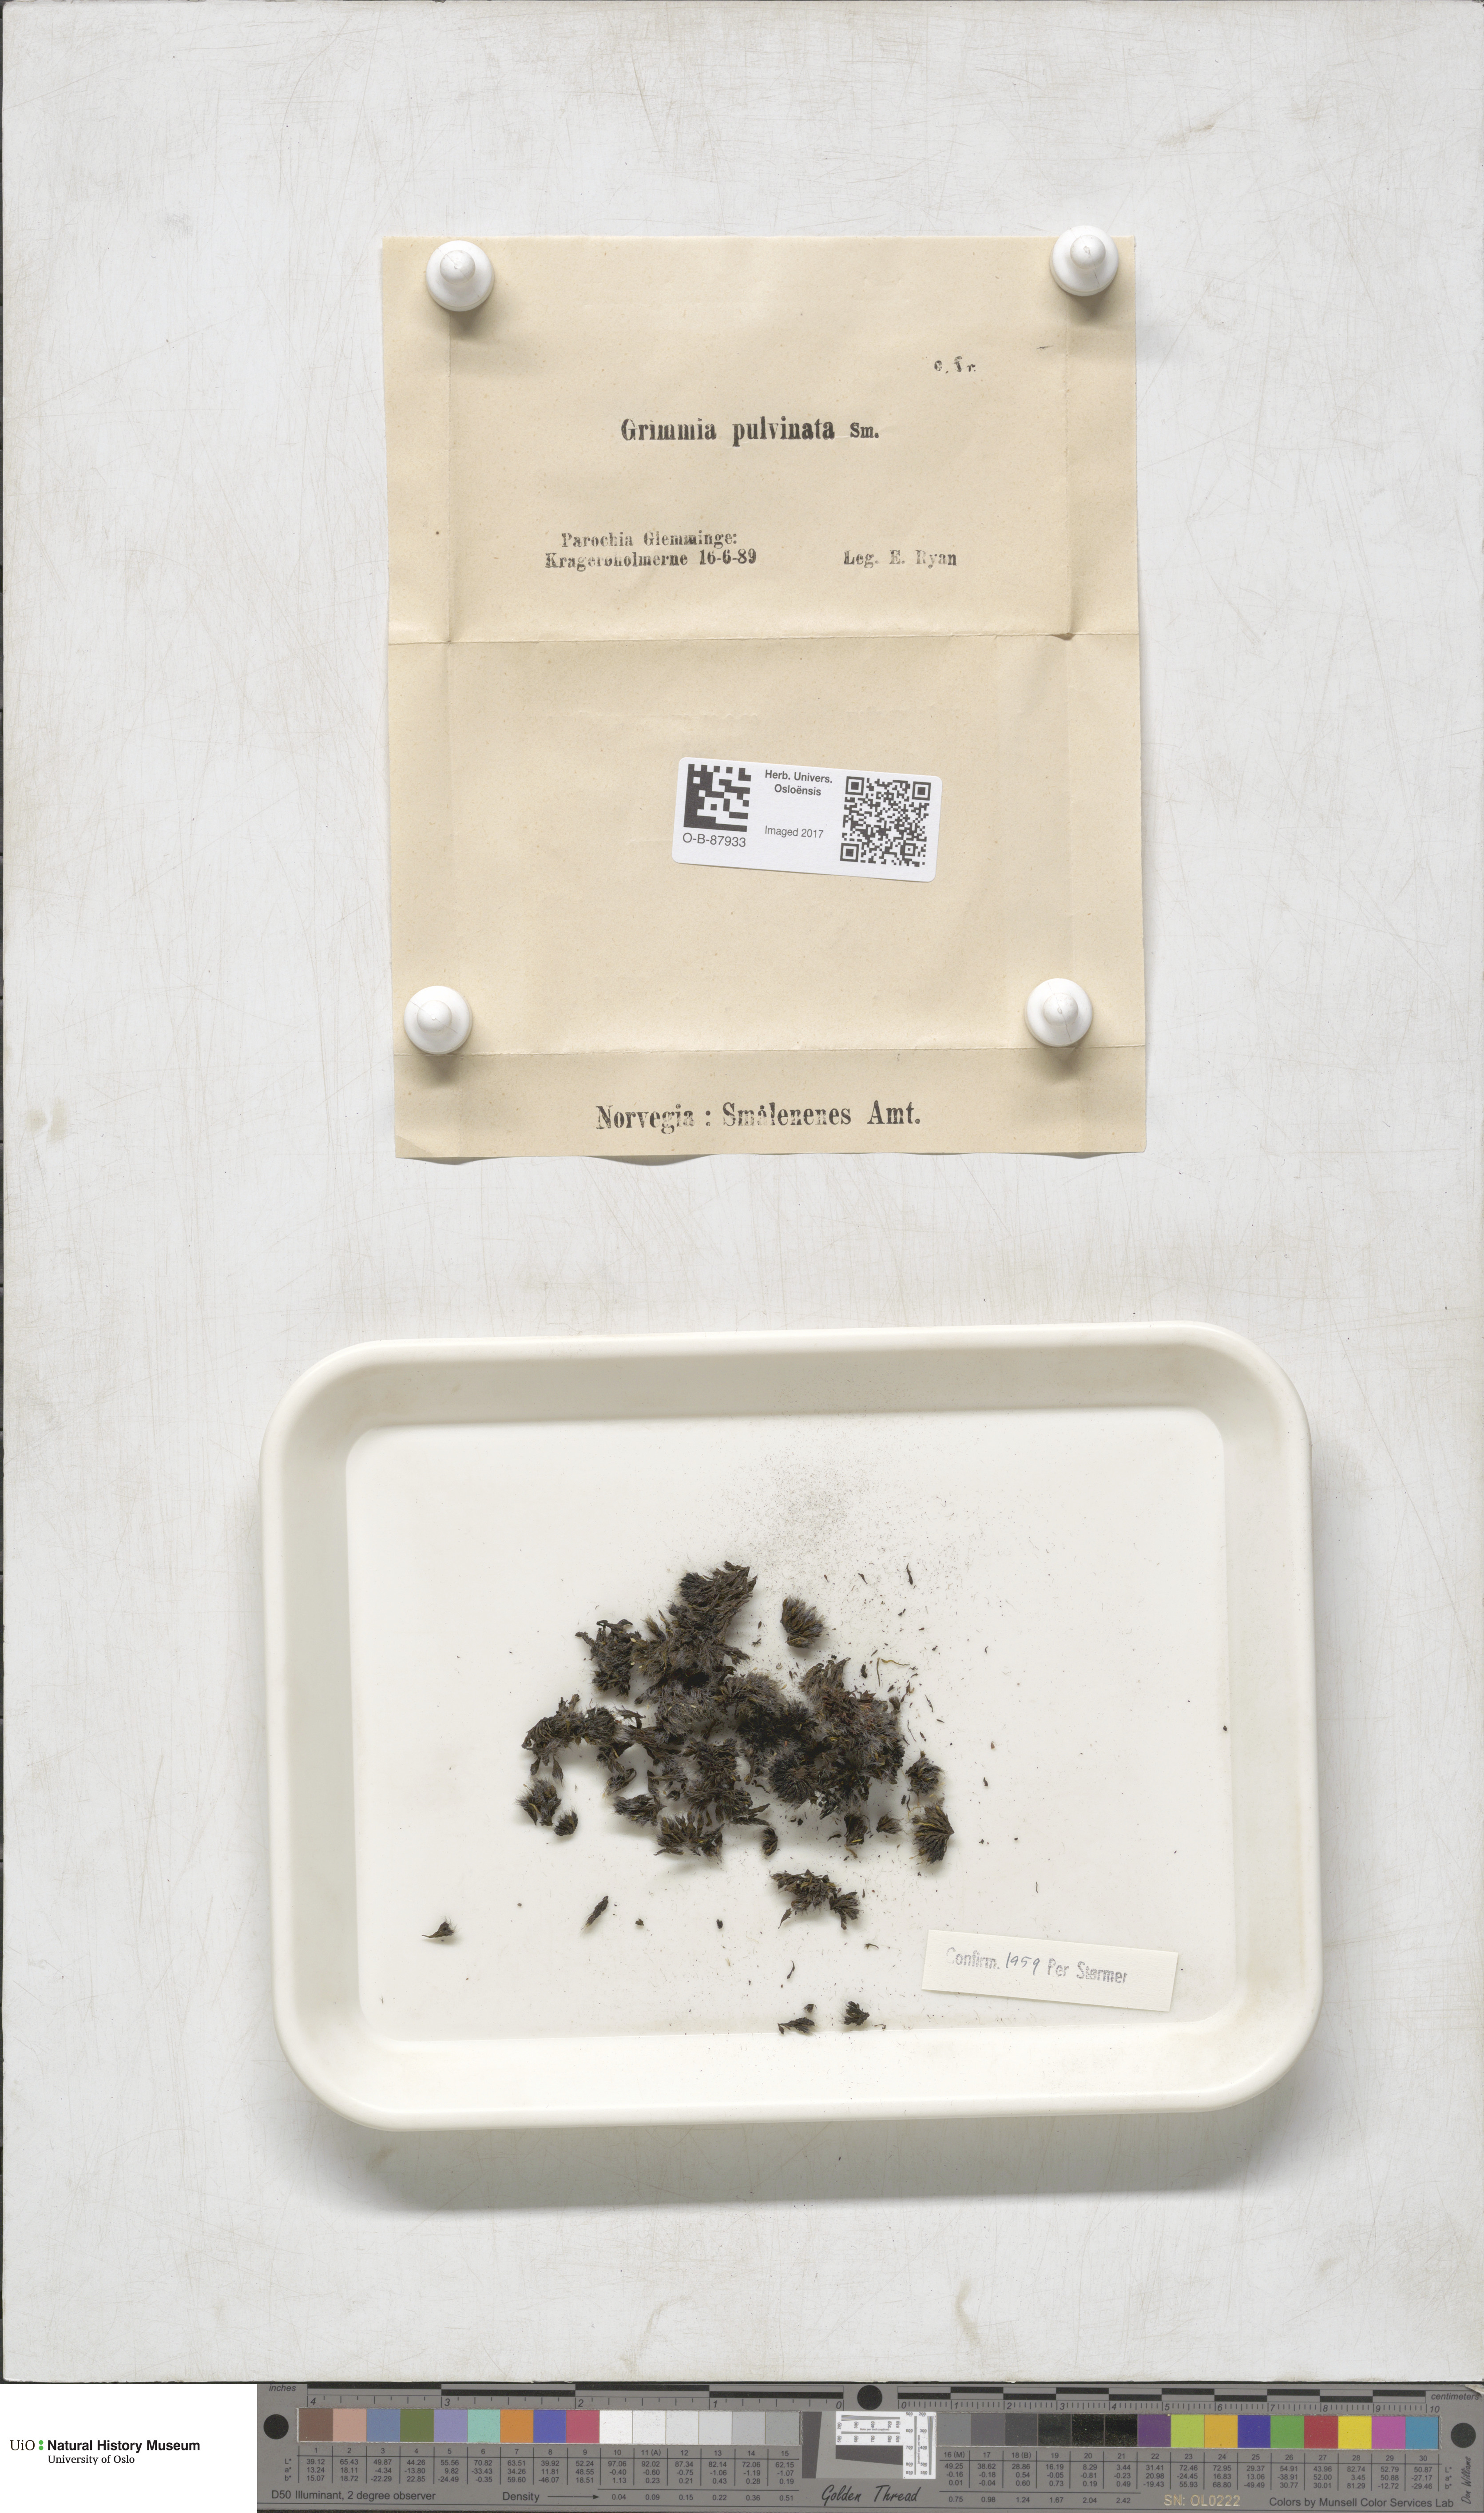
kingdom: Plantae
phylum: Bryophyta
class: Bryopsida
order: Grimmiales
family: Grimmiaceae
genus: Grimmia
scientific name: Grimmia pulvinata
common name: Grey-cushioned grimmia
